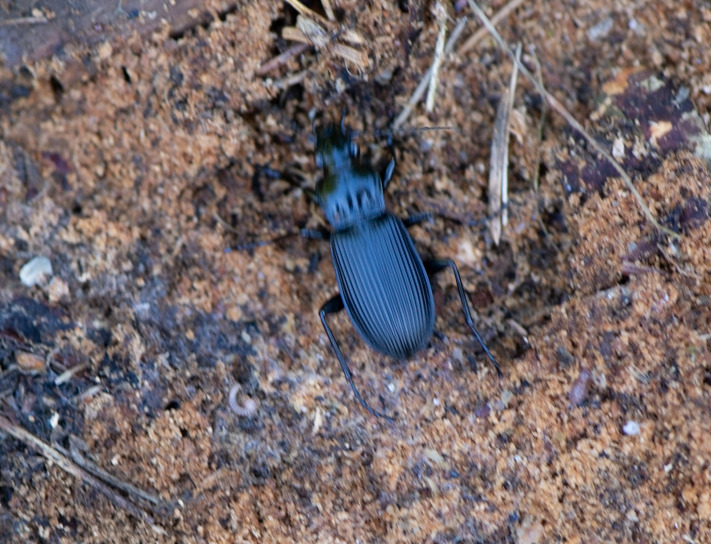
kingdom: Animalia
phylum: Arthropoda
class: Insecta
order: Coleoptera
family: Carabidae
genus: Pterostichus
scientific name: Pterostichus niger
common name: Skovjordløber
